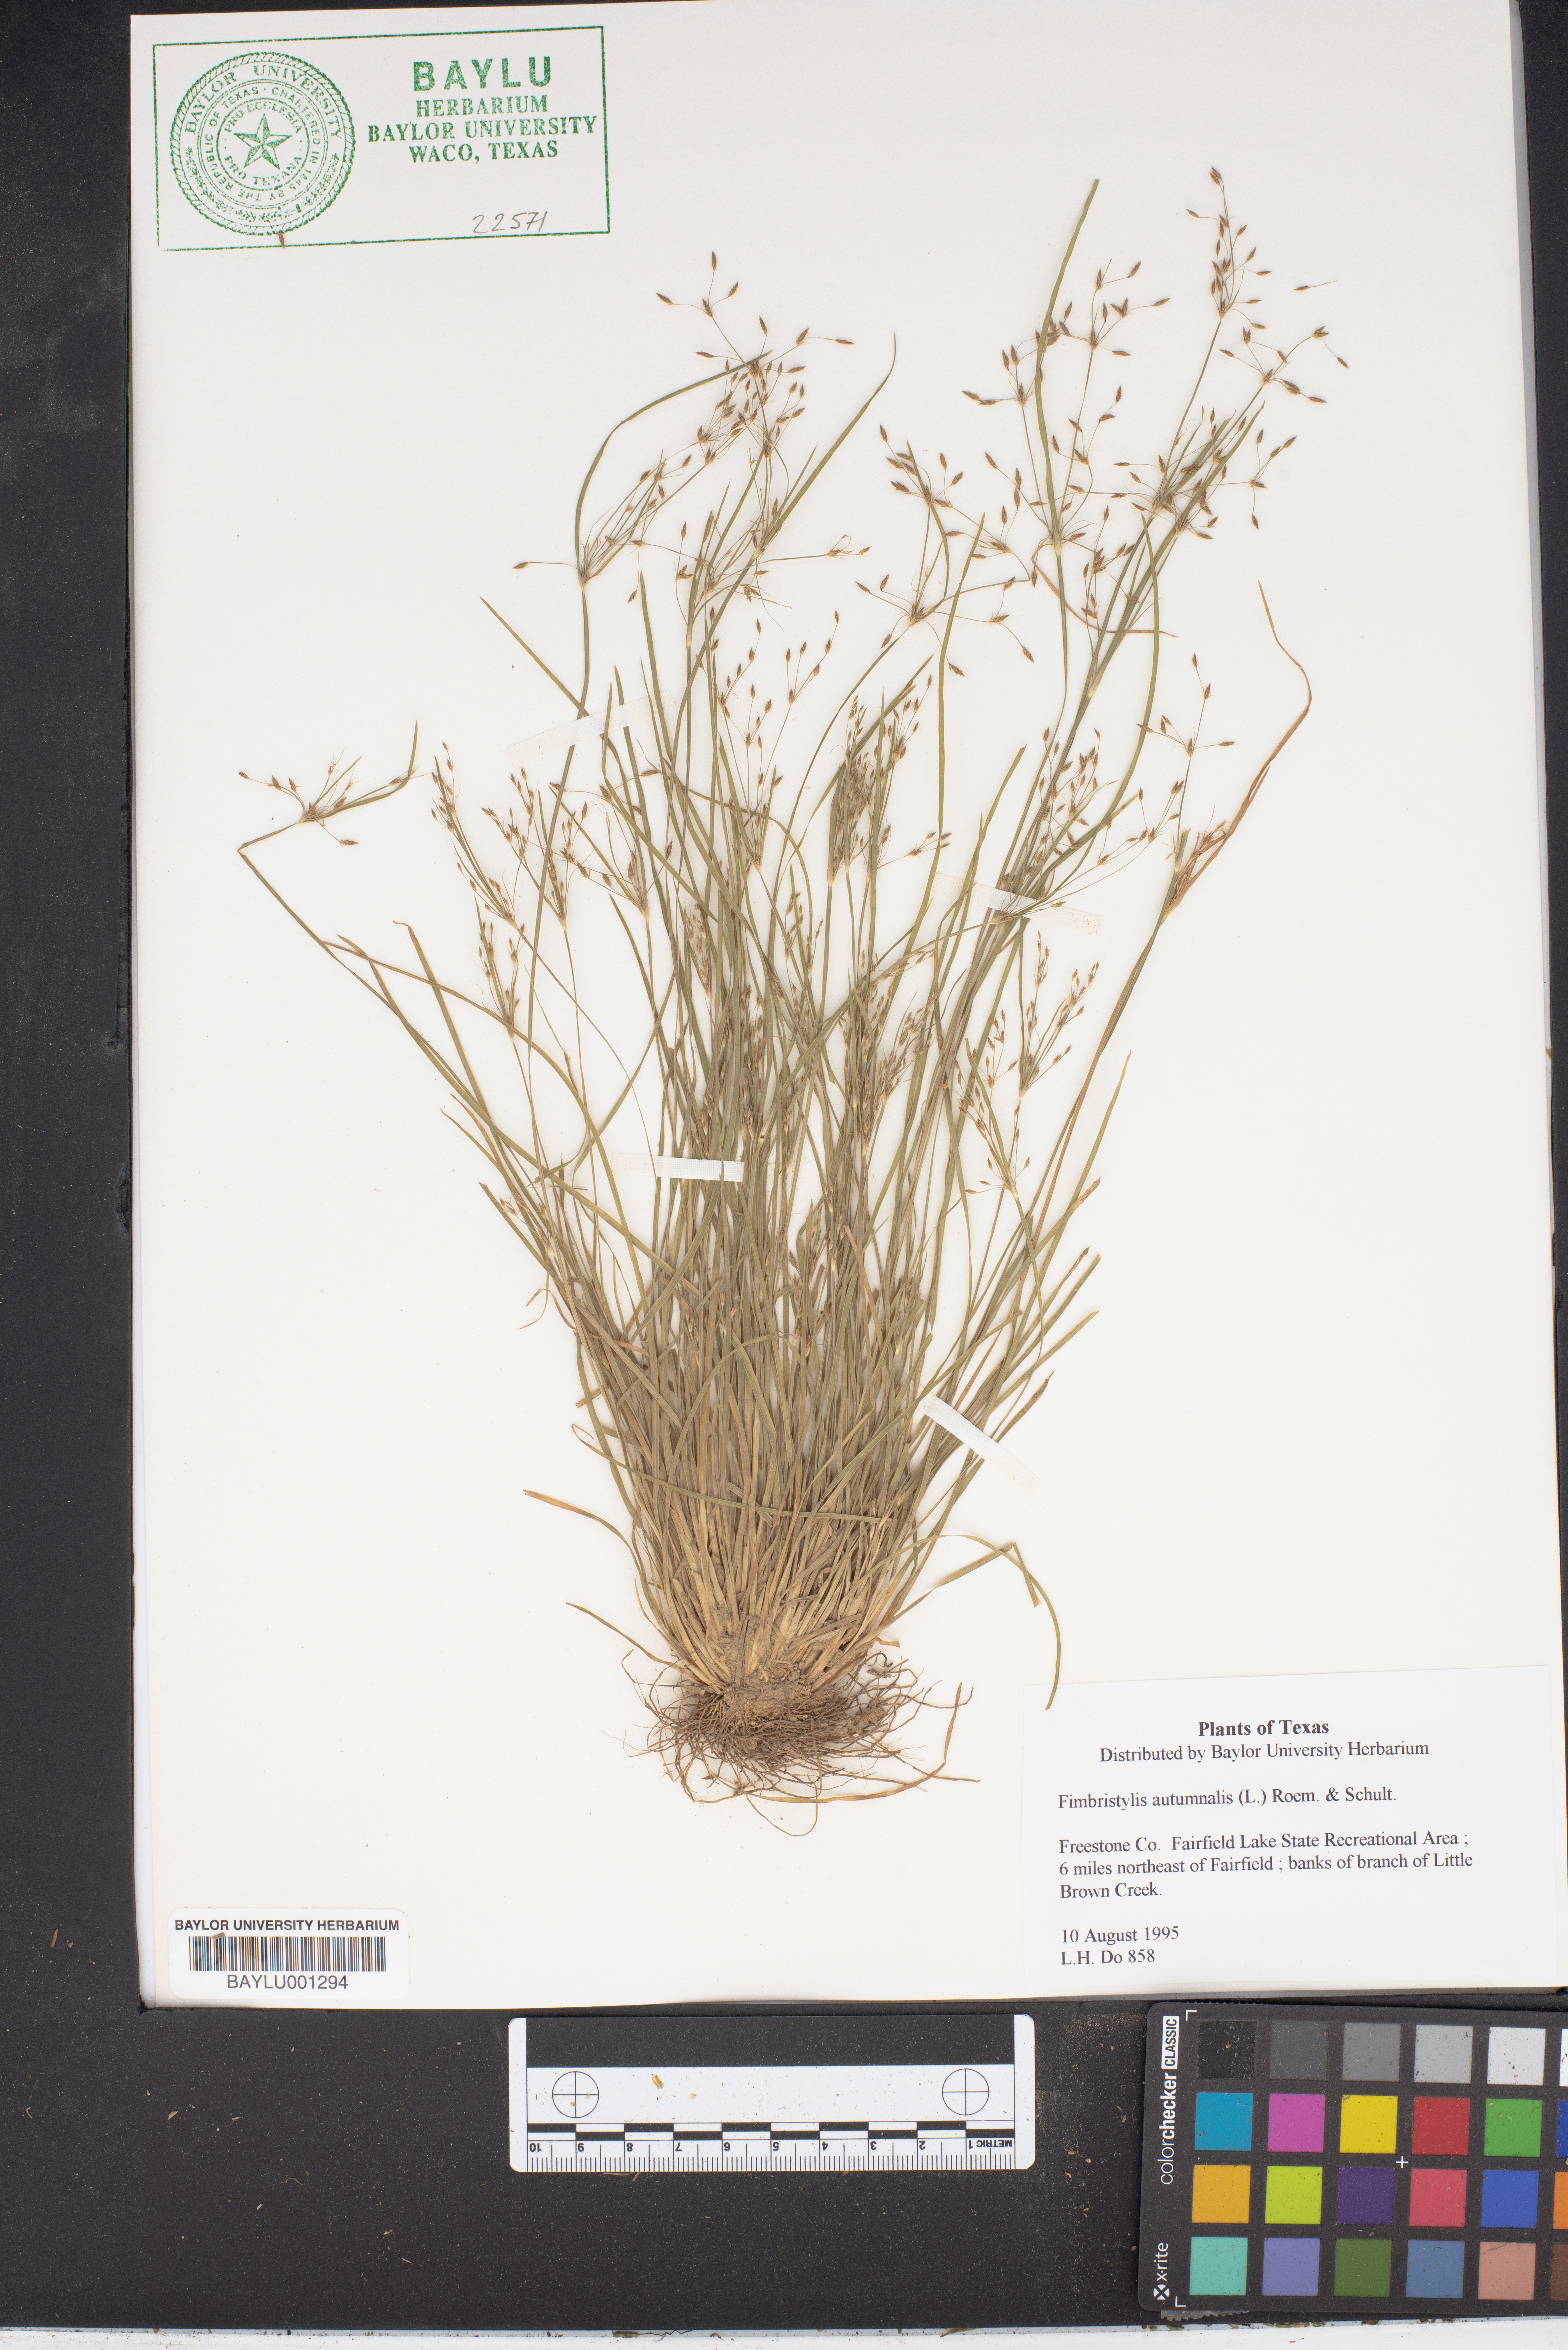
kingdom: Plantae
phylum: Tracheophyta
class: Liliopsida
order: Poales
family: Cyperaceae
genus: Fimbristylis
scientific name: Fimbristylis autumnalis
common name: Slender fimbristylis
